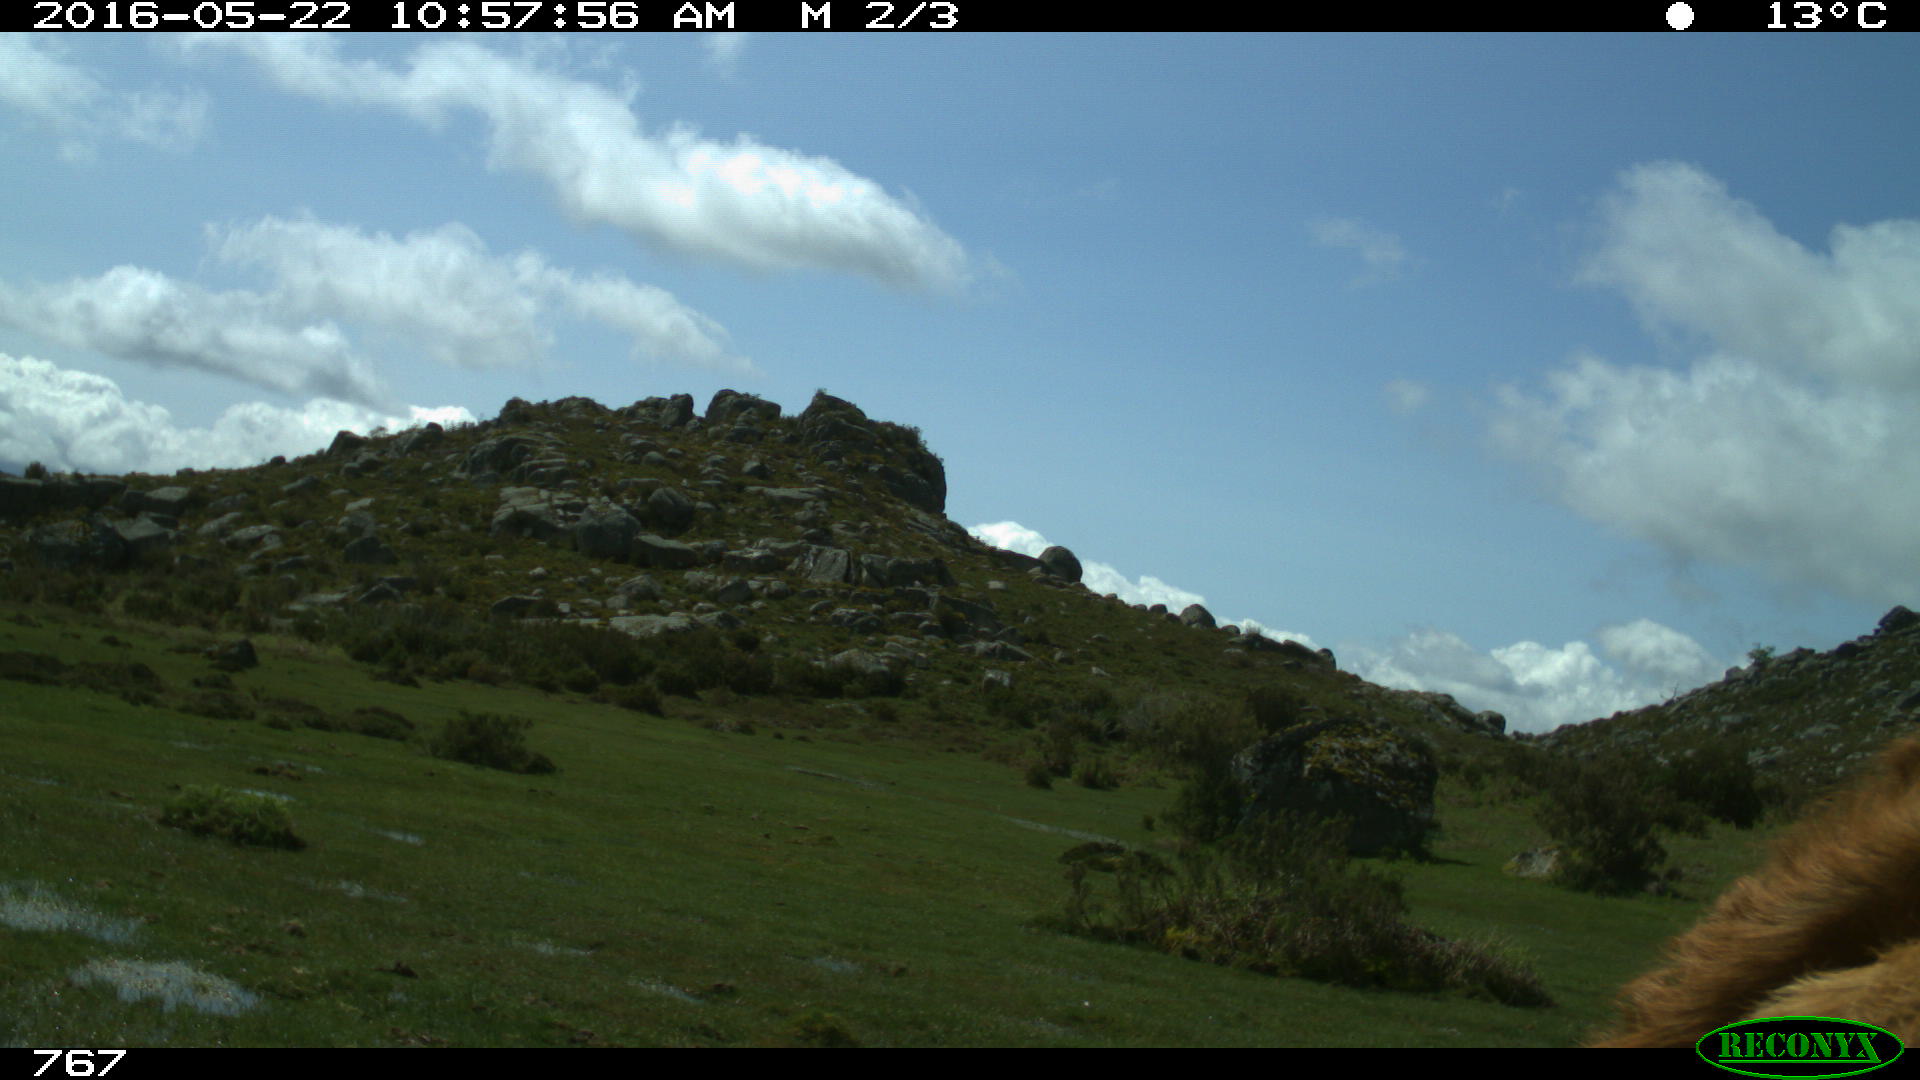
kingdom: Animalia
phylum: Chordata
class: Mammalia
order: Artiodactyla
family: Bovidae
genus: Bos
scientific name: Bos taurus
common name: Domesticated cattle
